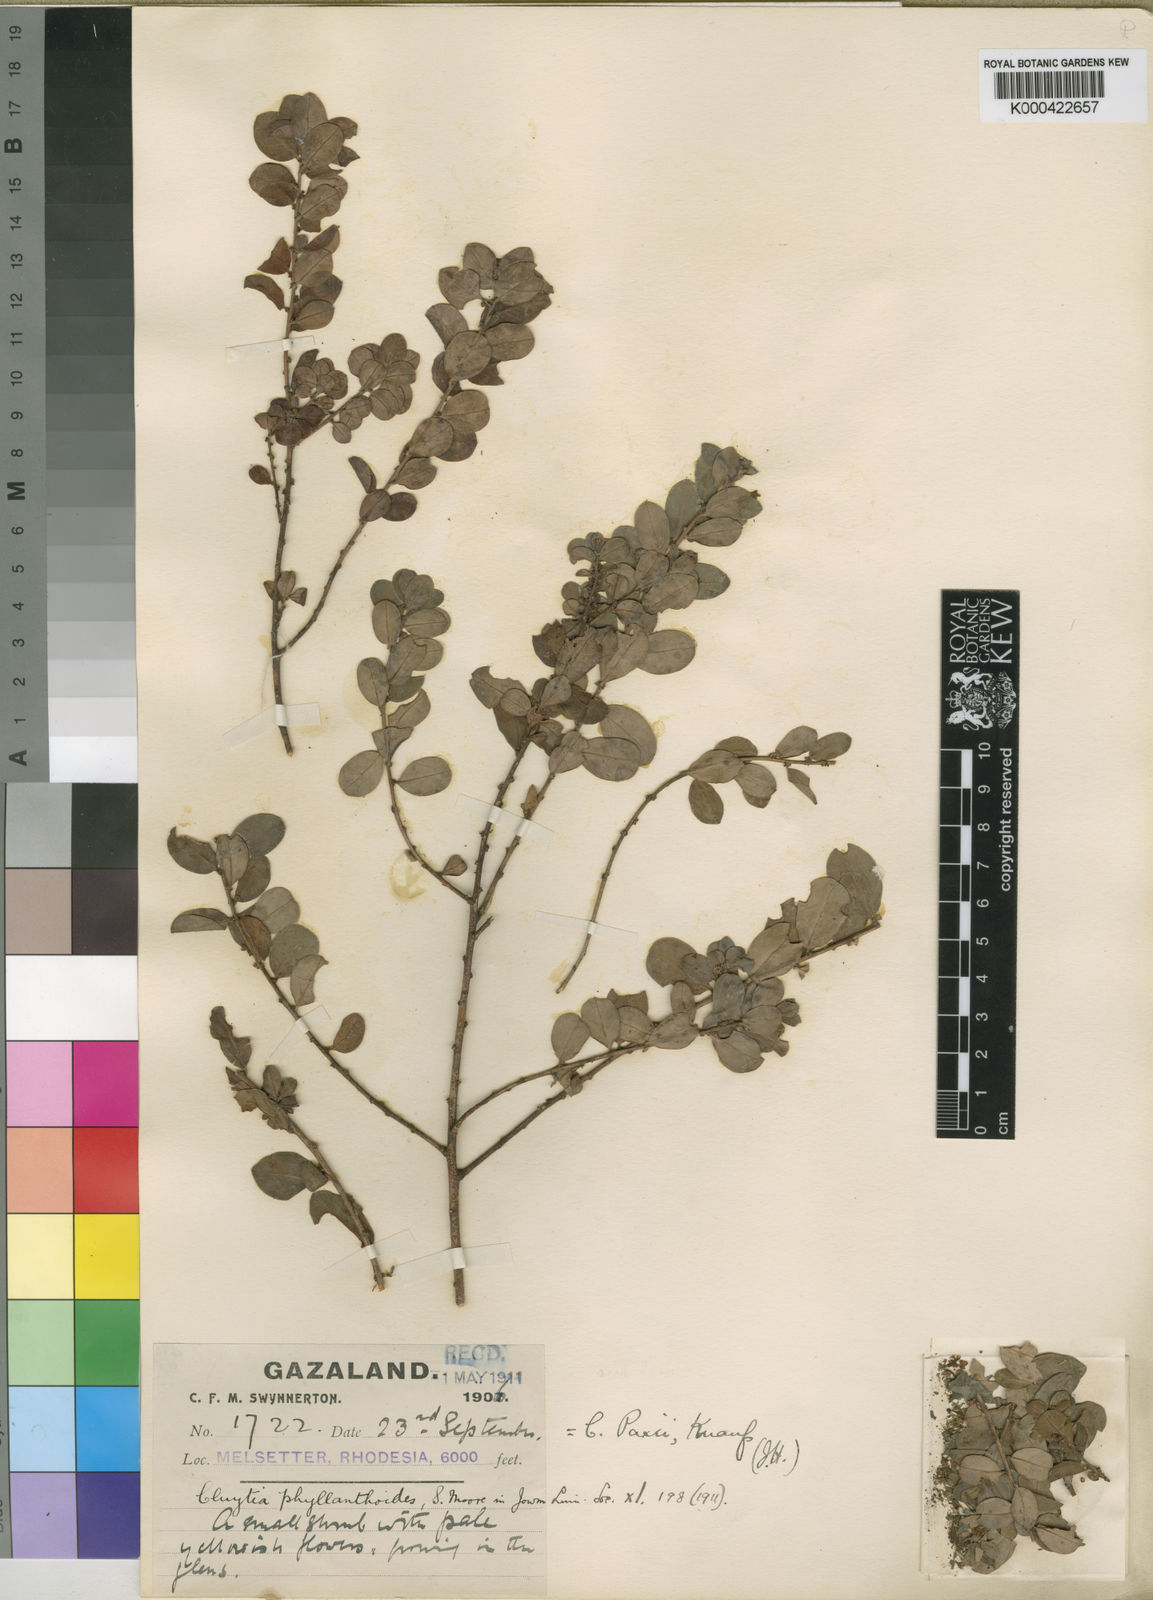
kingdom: Plantae
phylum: Tracheophyta
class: Magnoliopsida
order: Malpighiales
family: Peraceae
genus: Clutia
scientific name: Clutia paxii
